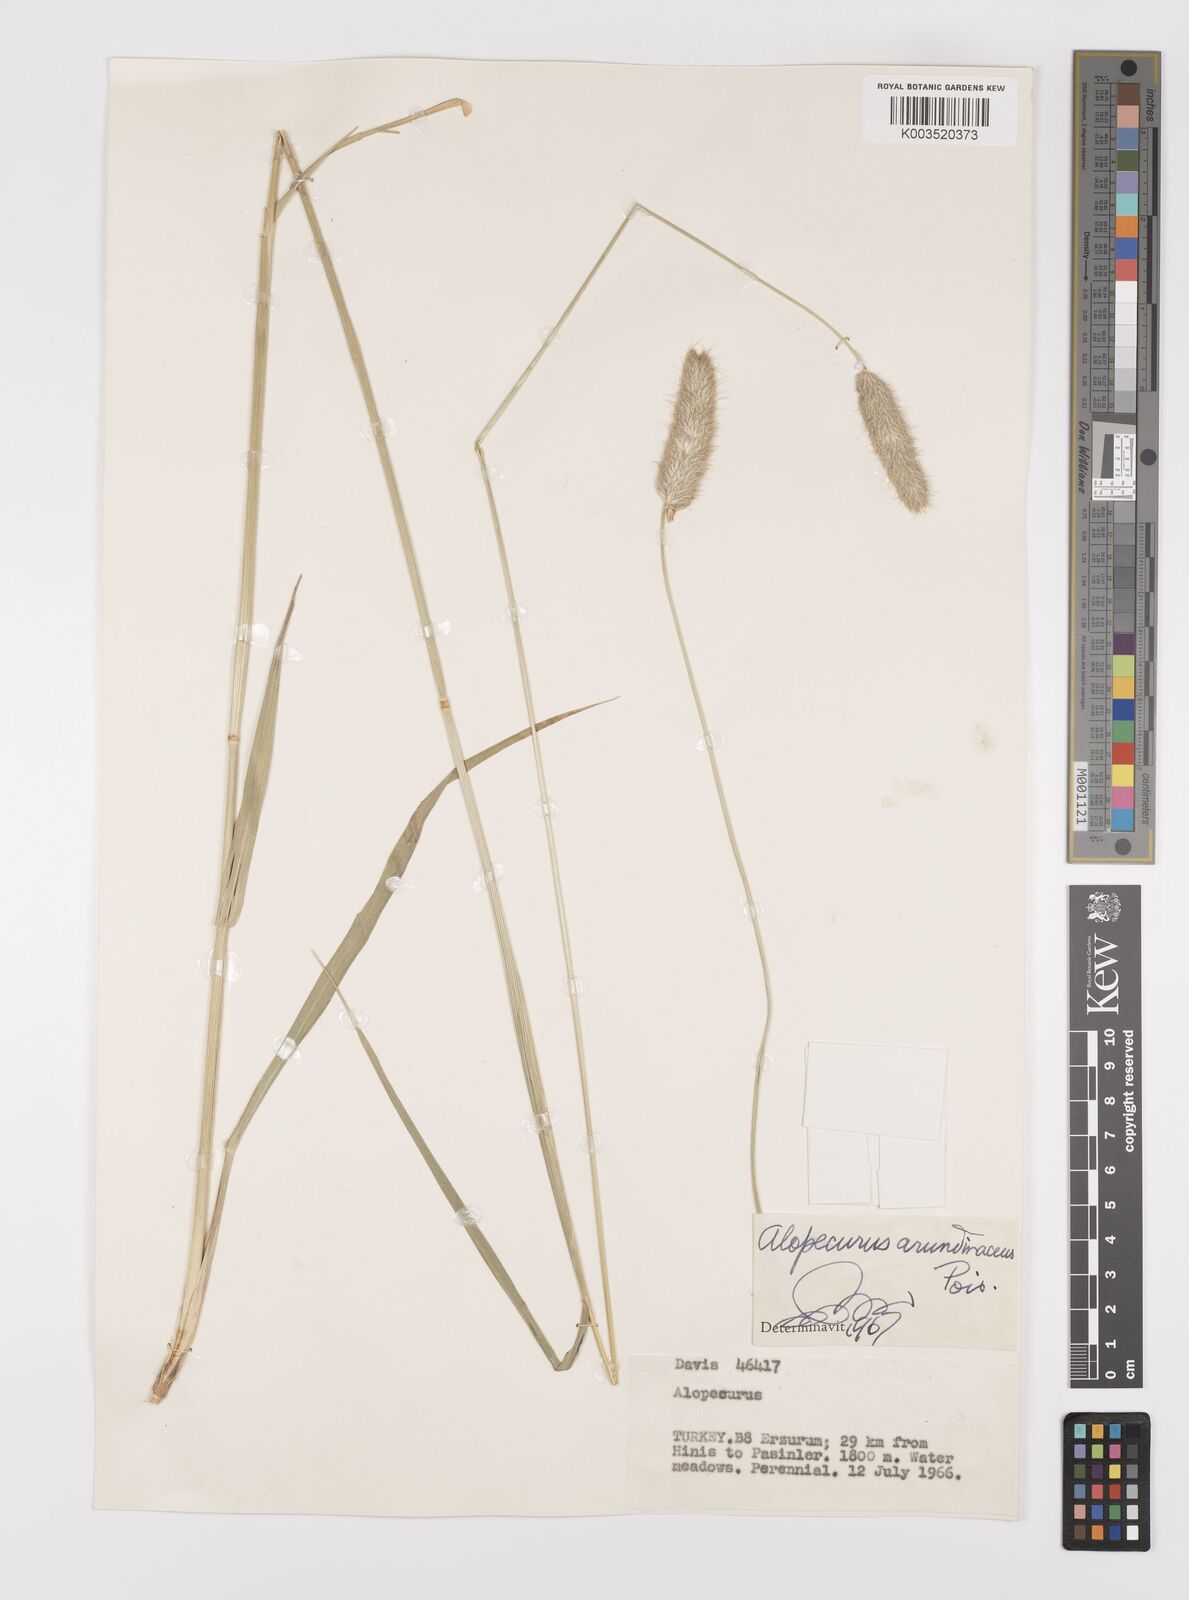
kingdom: Plantae
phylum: Tracheophyta
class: Liliopsida
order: Poales
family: Poaceae
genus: Alopecurus
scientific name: Alopecurus arundinaceus
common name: Creeping meadow foxtail
